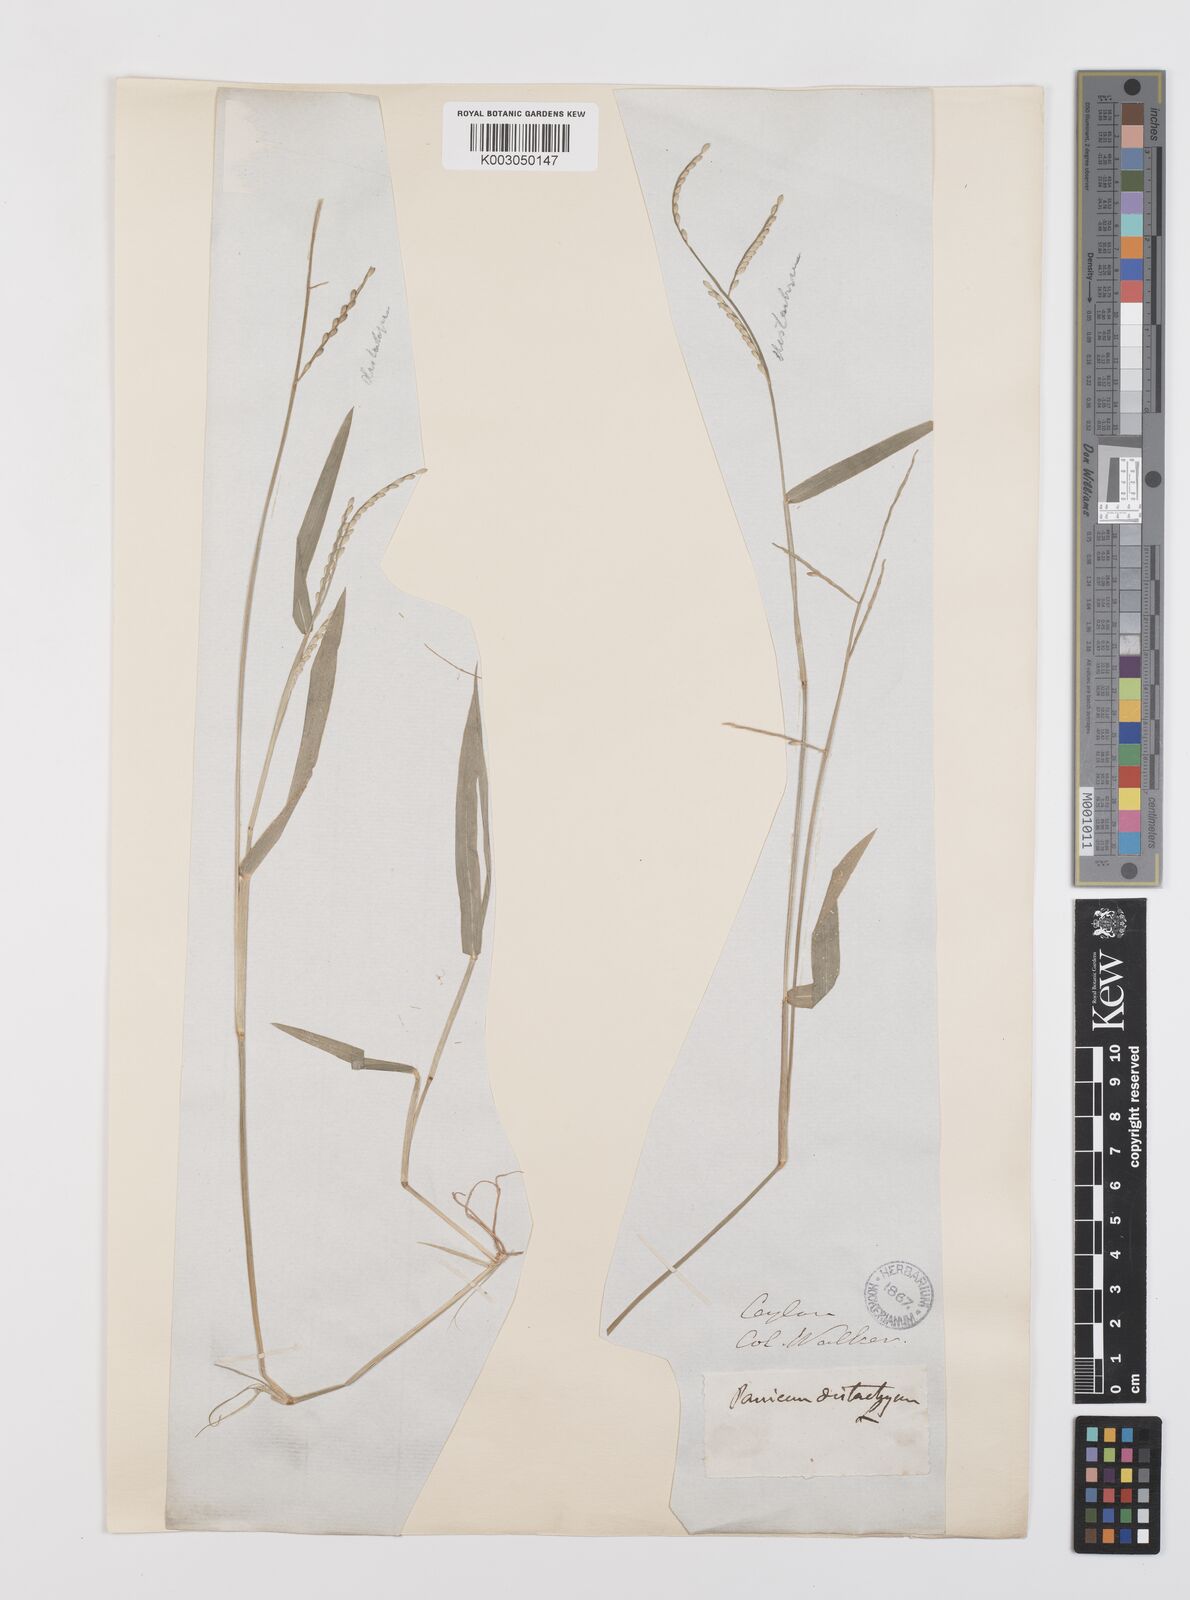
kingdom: Plantae
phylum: Tracheophyta
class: Liliopsida
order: Poales
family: Poaceae
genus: Urochloa
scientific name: Urochloa subquadripara
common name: Armgrass millet
